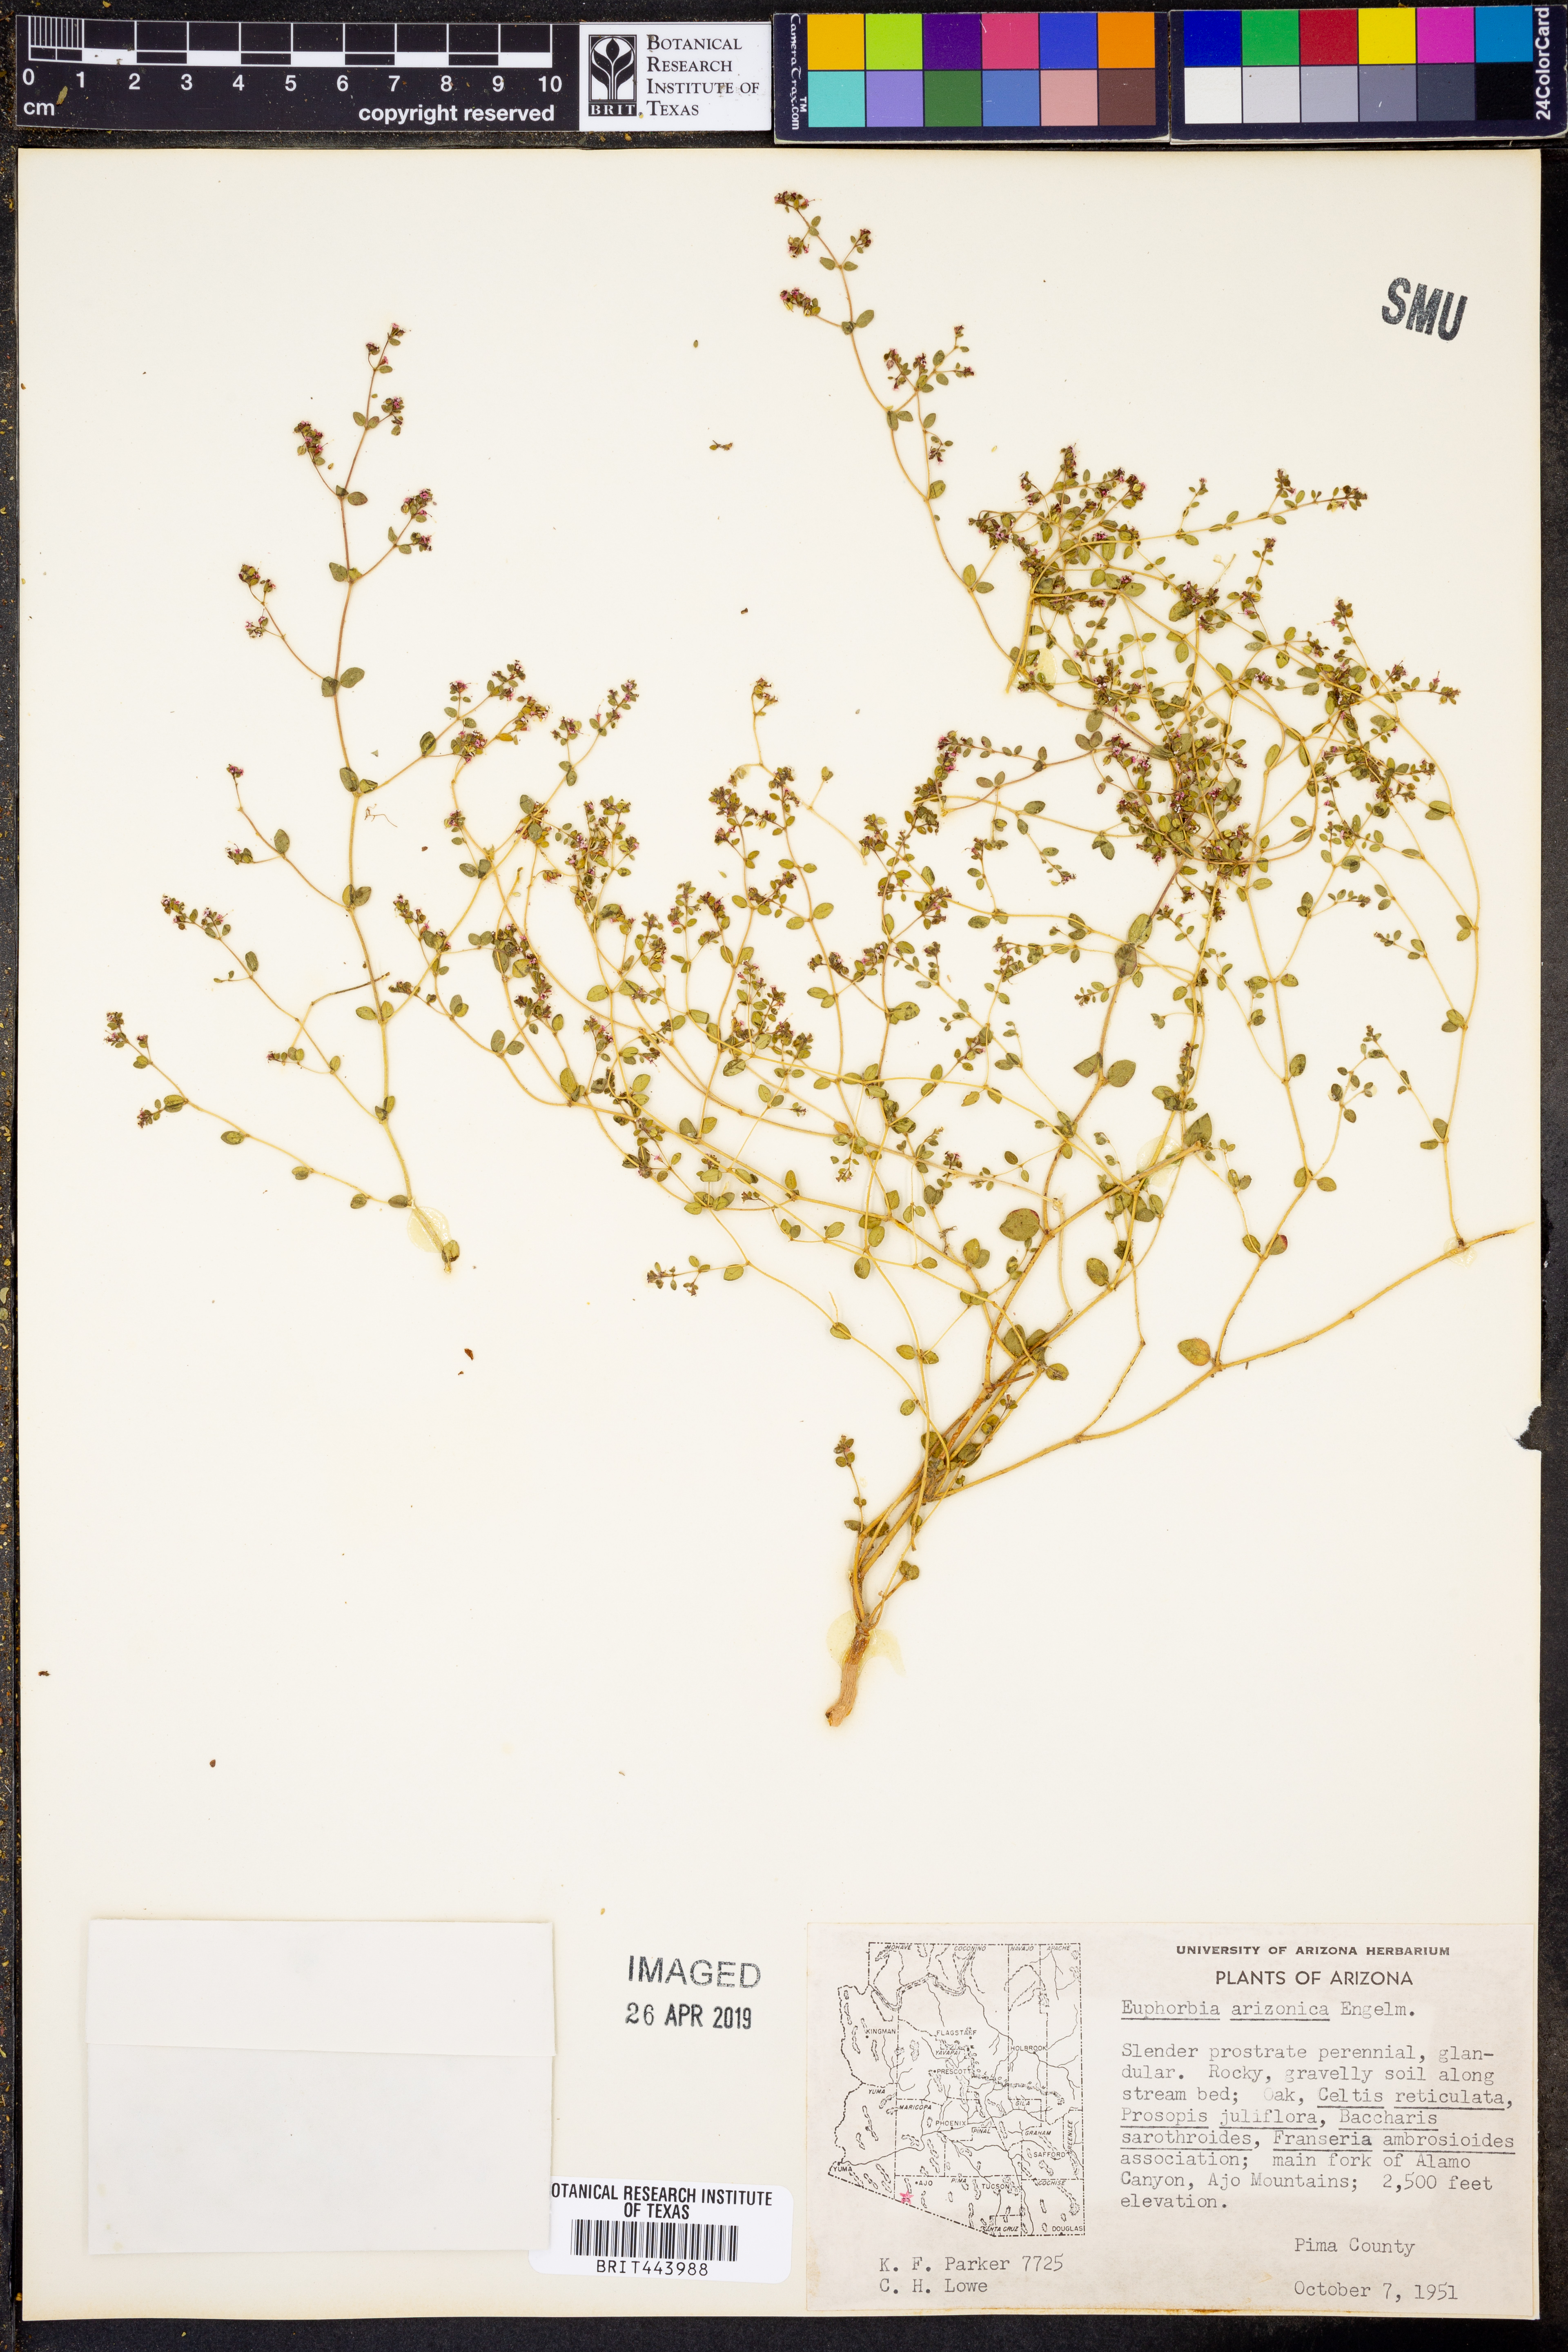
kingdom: Plantae
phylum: Tracheophyta
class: Magnoliopsida
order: Malpighiales
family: Euphorbiaceae
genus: Euphorbia
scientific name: Euphorbia arizonica
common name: Arizona spurge
